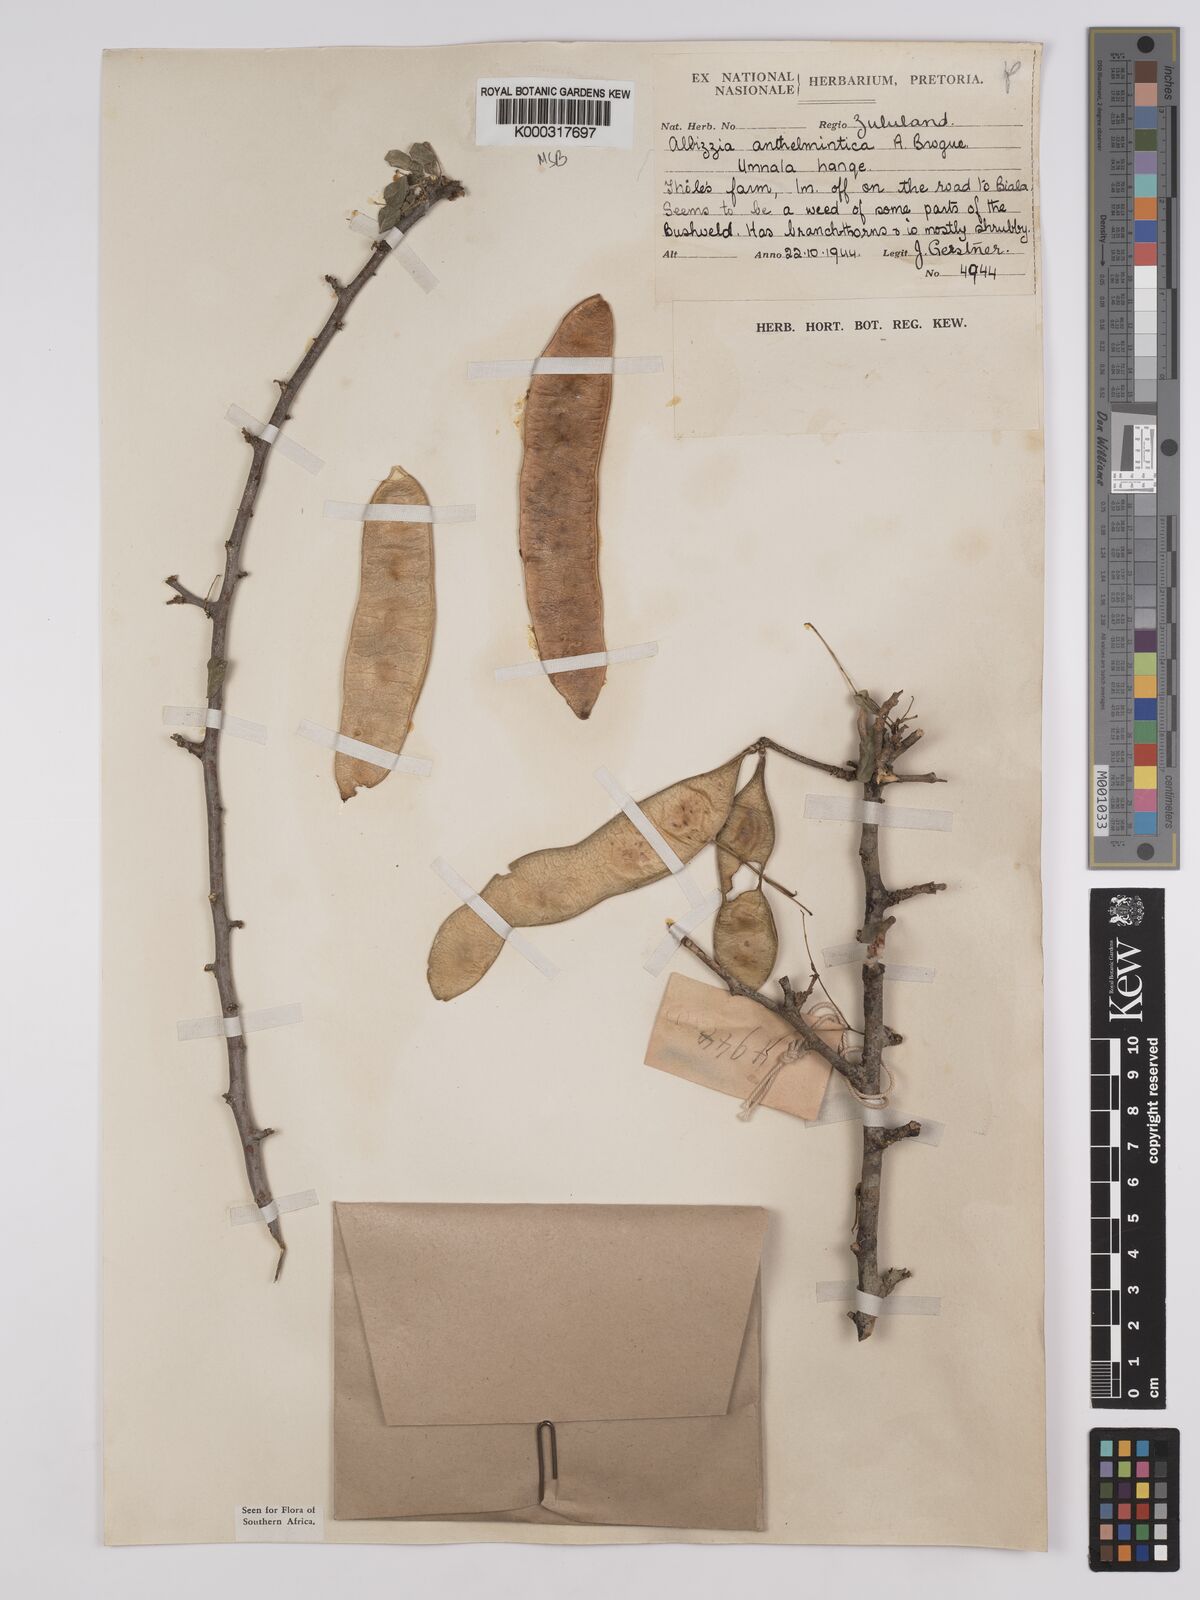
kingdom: Plantae
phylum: Tracheophyta
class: Magnoliopsida
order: Fabales
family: Fabaceae
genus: Albizia
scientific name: Albizia anthelmintica
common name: Worm-bark false-thorn
